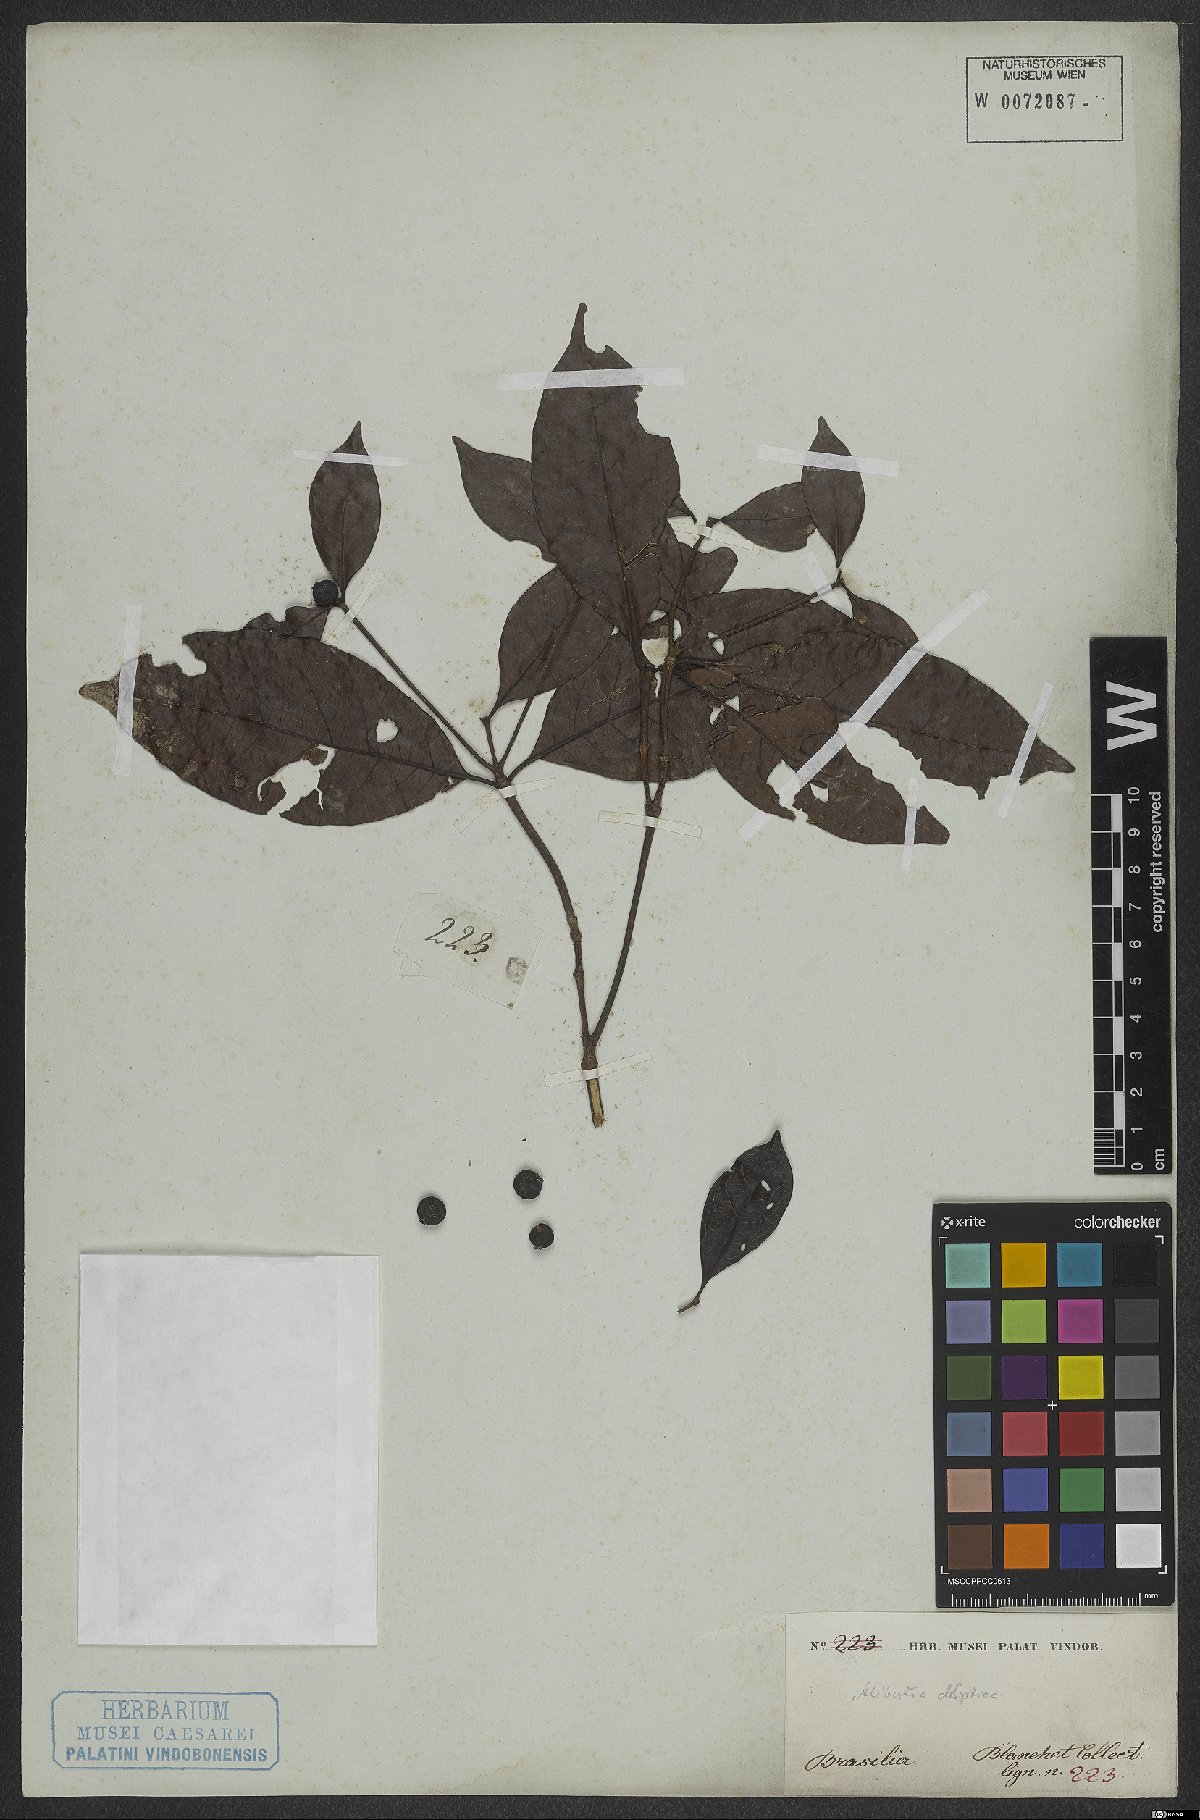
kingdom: Plantae
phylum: Tracheophyta
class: Magnoliopsida
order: Gentianales
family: Rubiaceae
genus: Cordiera
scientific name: Cordiera elliptica
